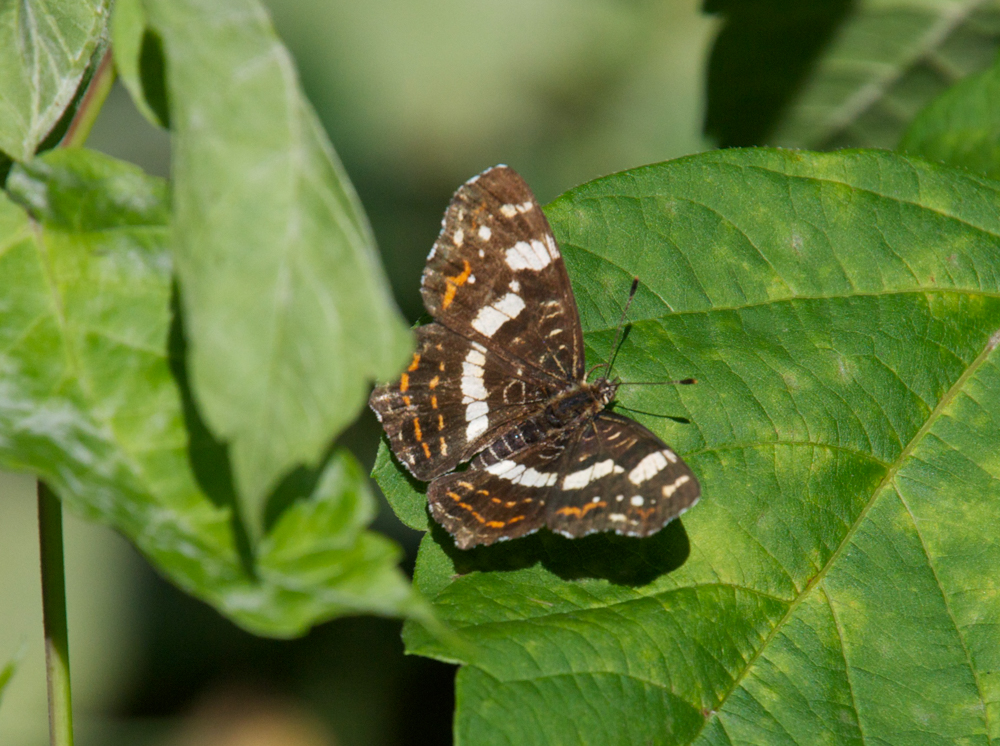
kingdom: Animalia
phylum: Arthropoda
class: Insecta
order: Lepidoptera
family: Nymphalidae
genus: Araschnia
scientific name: Araschnia levana
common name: Map butterfly
